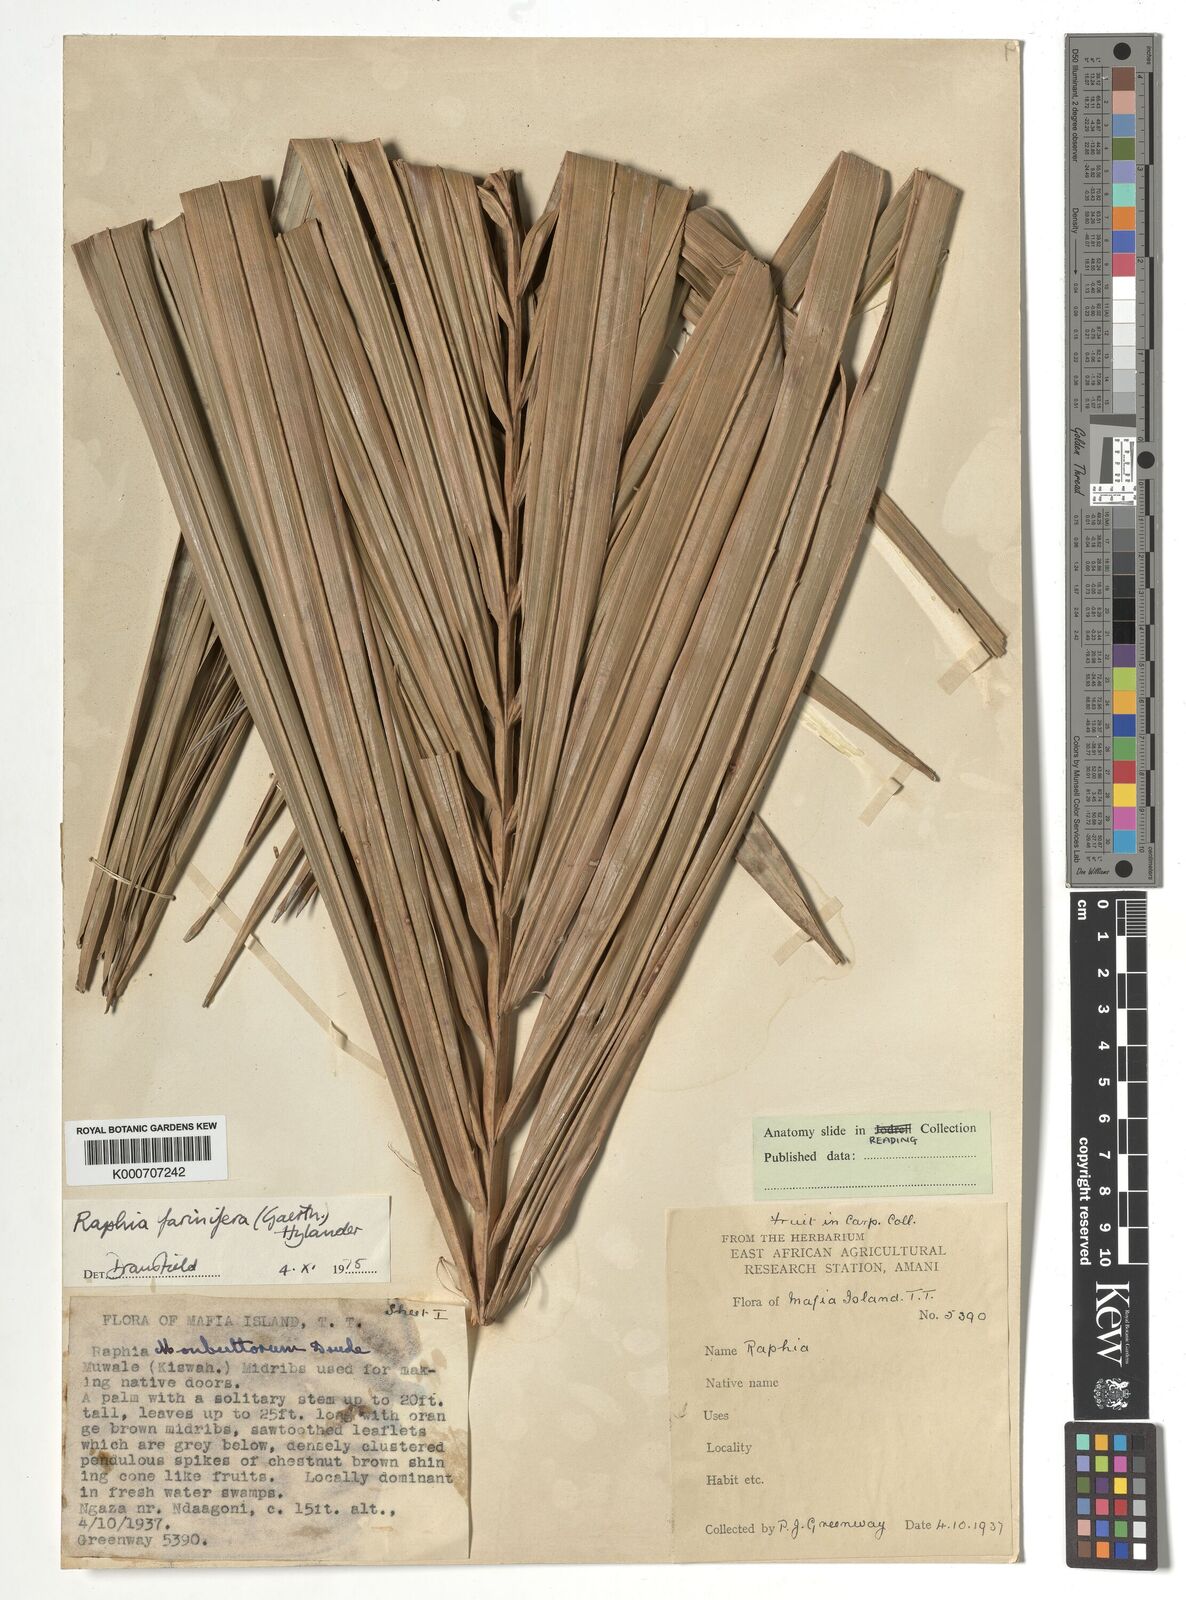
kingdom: Plantae
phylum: Tracheophyta
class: Liliopsida
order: Arecales
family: Arecaceae
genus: Raphia
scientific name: Raphia farinifera
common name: Raphia palm
